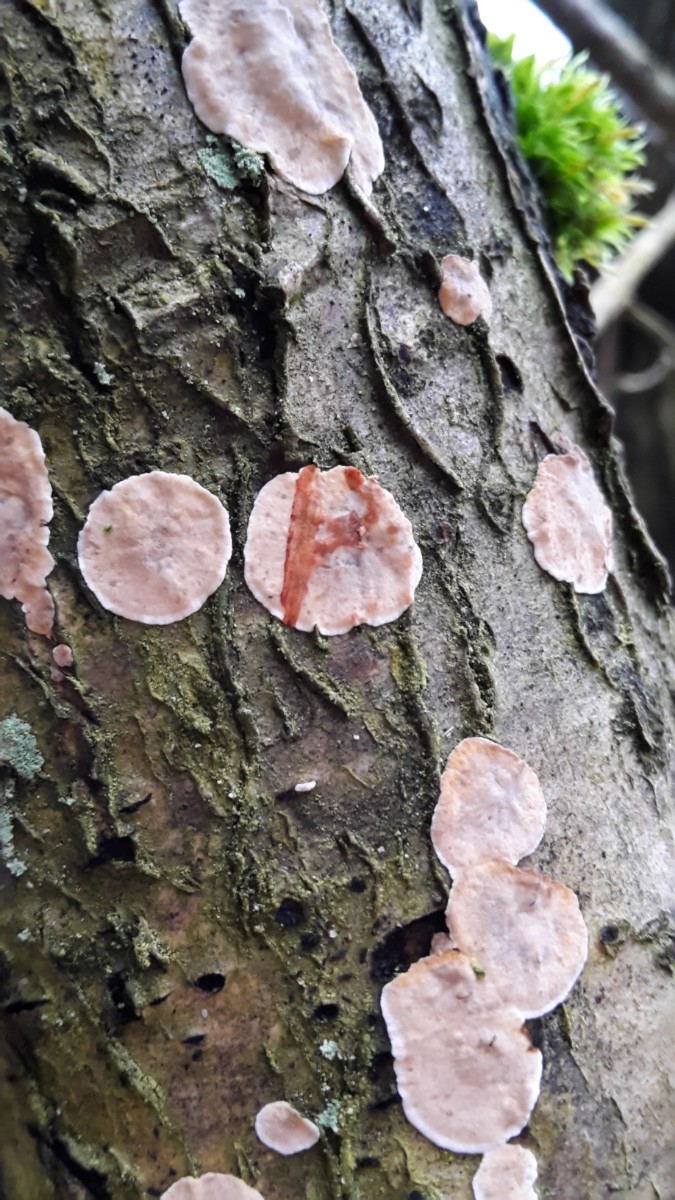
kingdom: Fungi
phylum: Basidiomycota
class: Agaricomycetes
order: Russulales
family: Stereaceae
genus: Stereum
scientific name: Stereum gausapatum
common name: tynd lædersvamp
